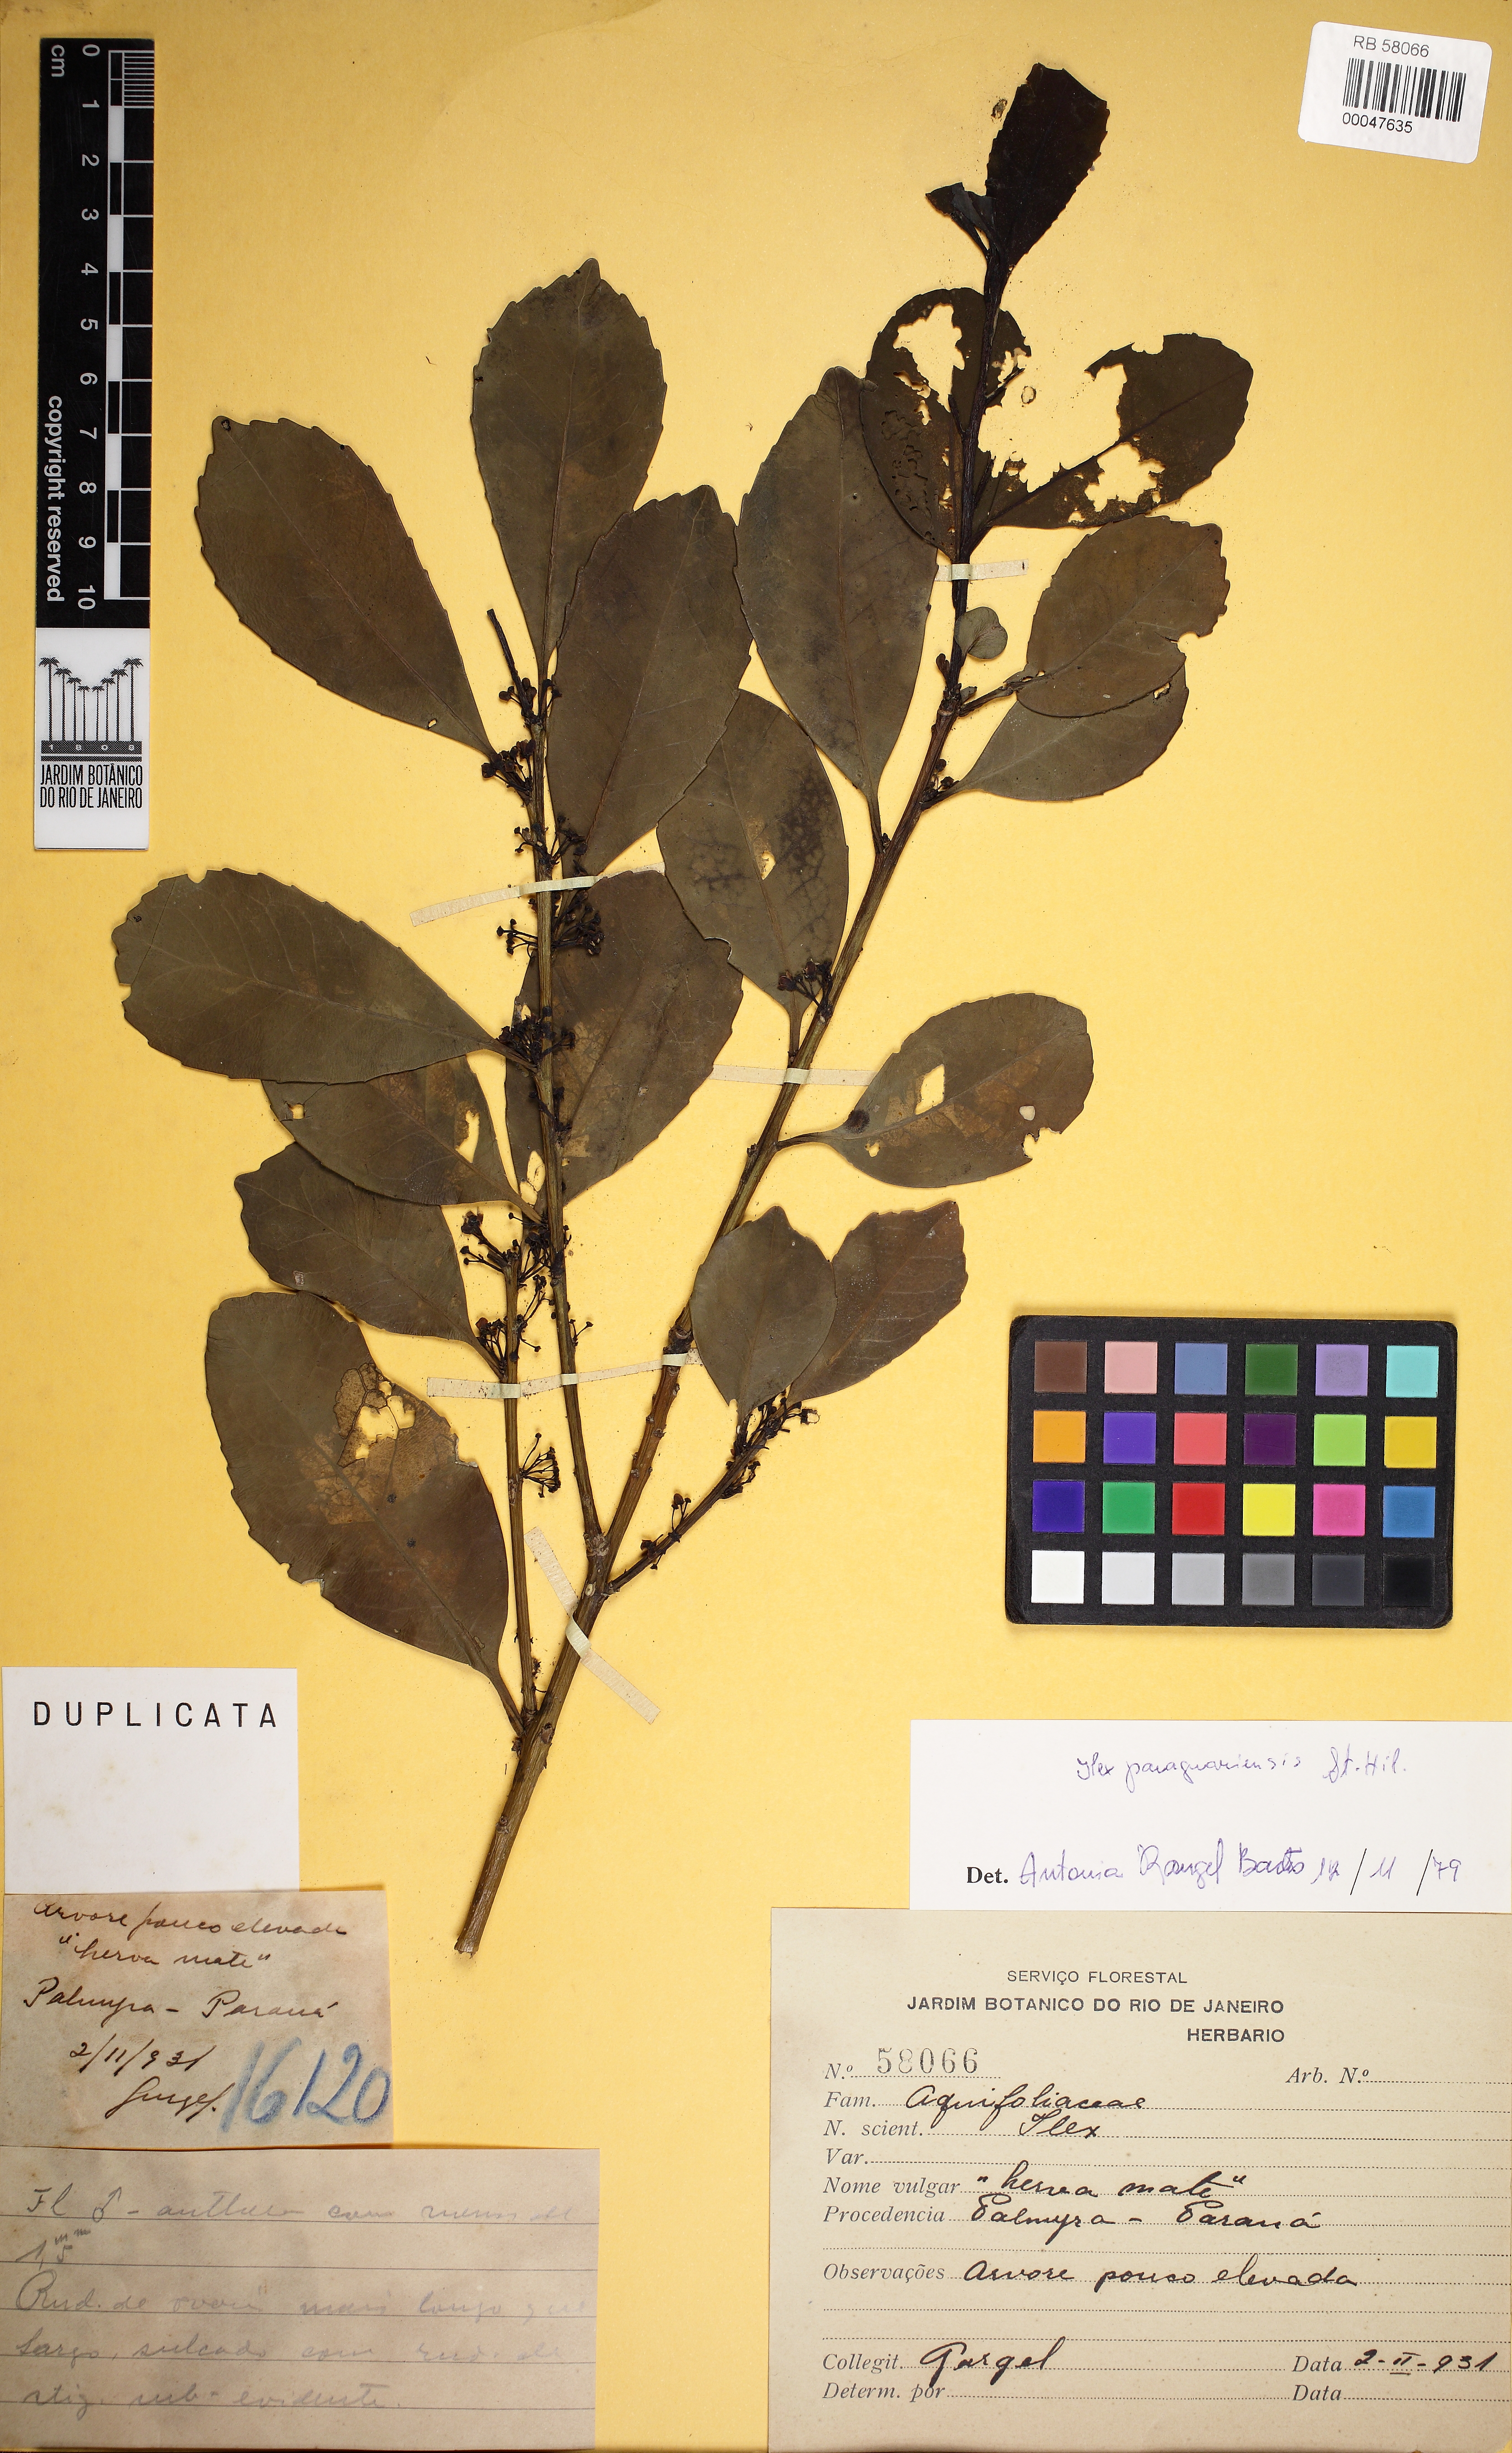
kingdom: Plantae
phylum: Tracheophyta
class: Magnoliopsida
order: Aquifoliales
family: Aquifoliaceae
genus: Ilex
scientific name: Ilex paraguariensis
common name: Paraguay tea
